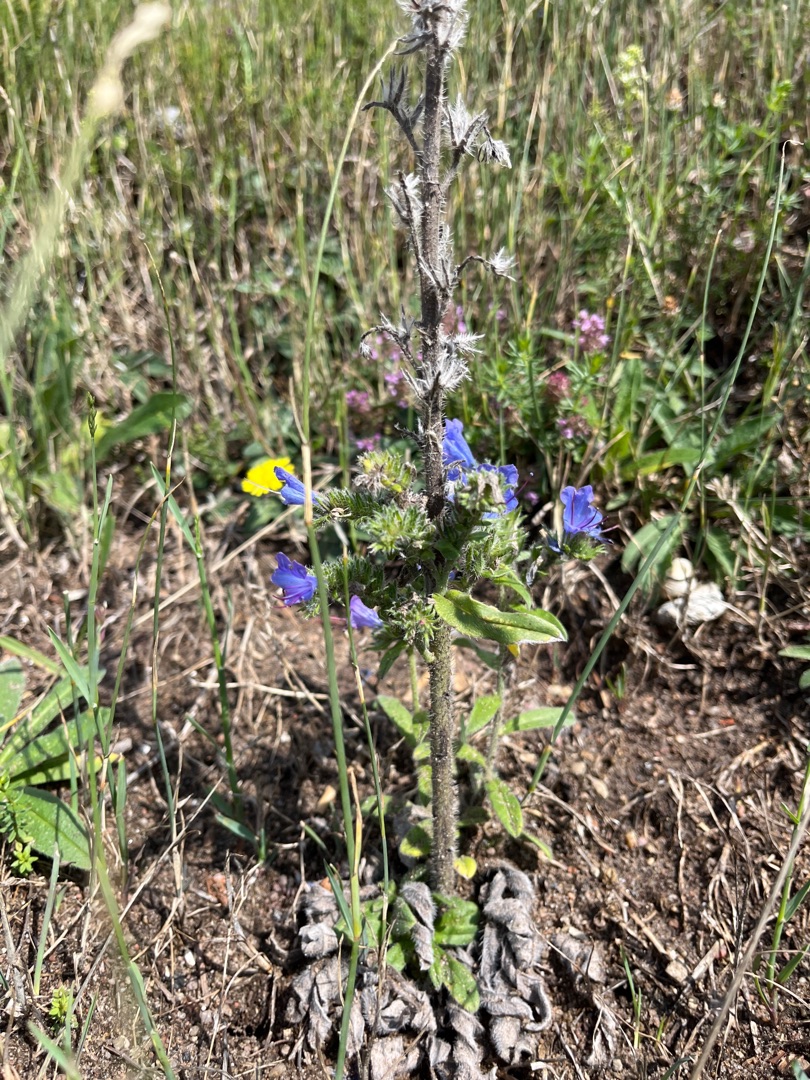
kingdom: Plantae
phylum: Tracheophyta
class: Magnoliopsida
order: Boraginales
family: Boraginaceae
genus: Echium
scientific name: Echium vulgare
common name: Slangehoved
